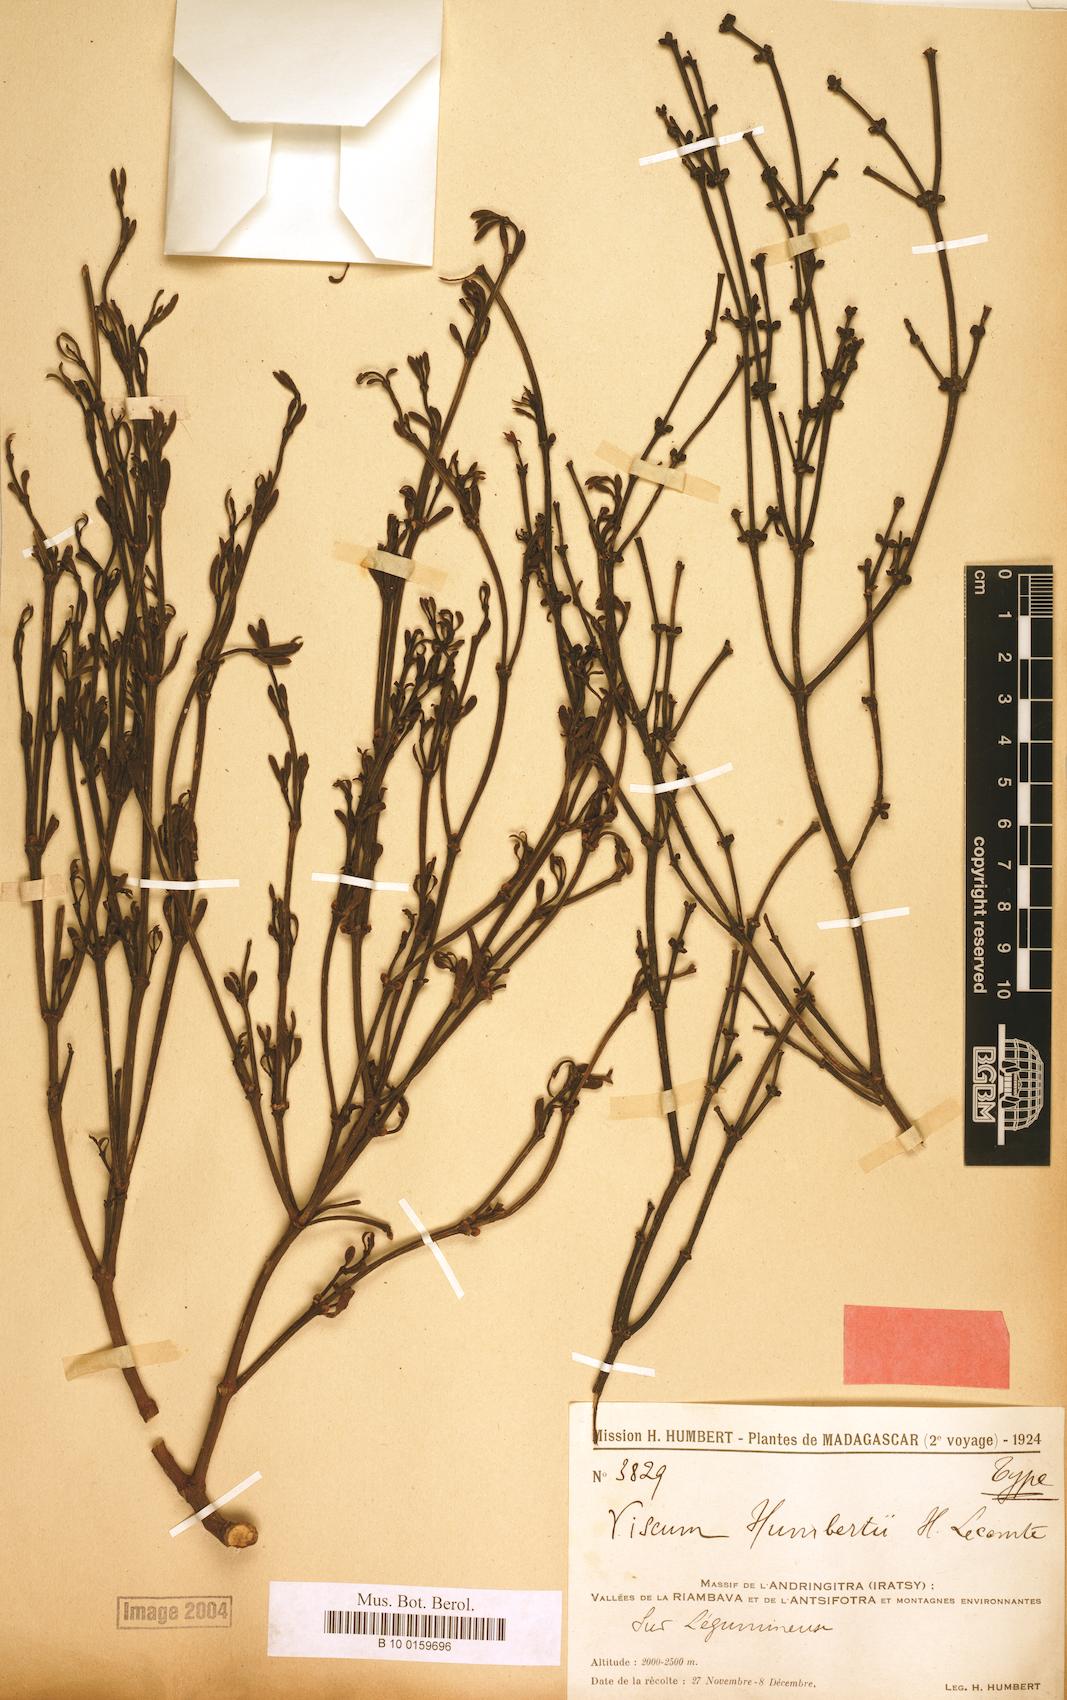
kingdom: Plantae
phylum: Tracheophyta
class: Magnoliopsida
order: Santalales
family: Viscaceae
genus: Viscum
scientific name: Viscum trachycarpum
